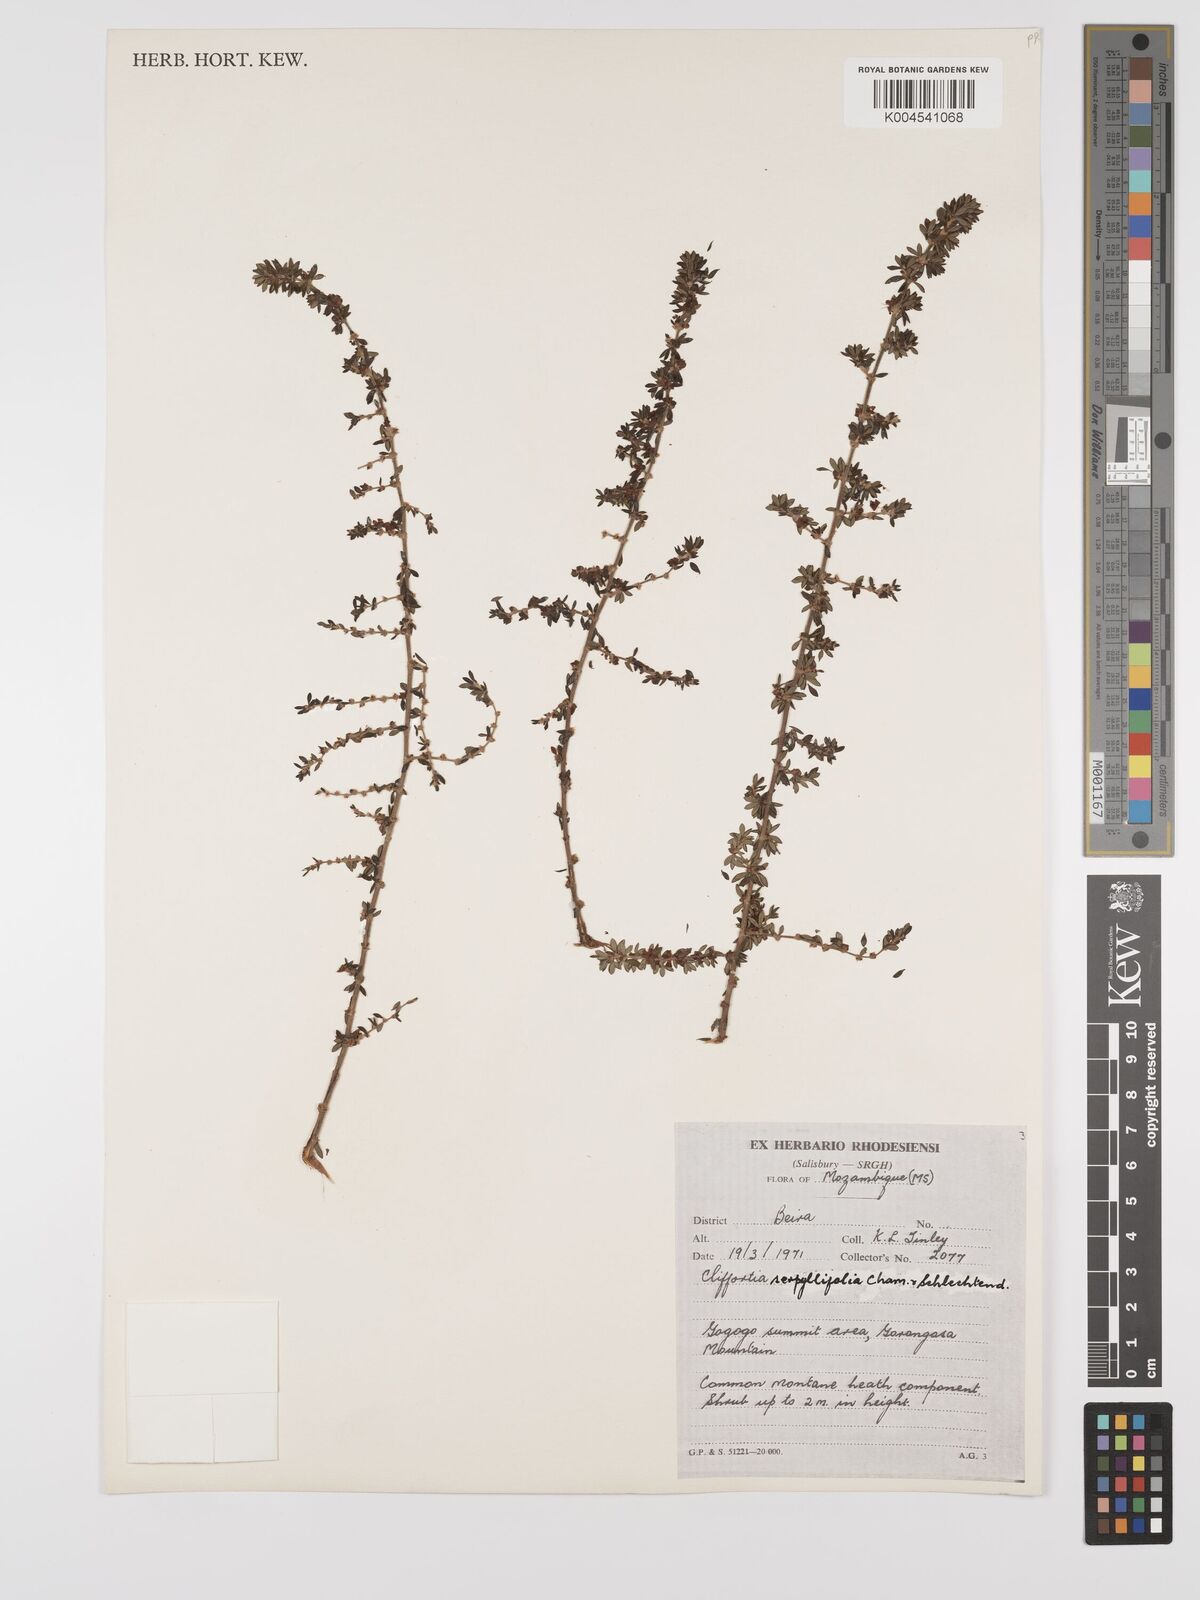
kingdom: Plantae
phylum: Tracheophyta
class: Magnoliopsida
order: Rosales
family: Rosaceae
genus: Cliffortia
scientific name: Cliffortia serpyllifolia
